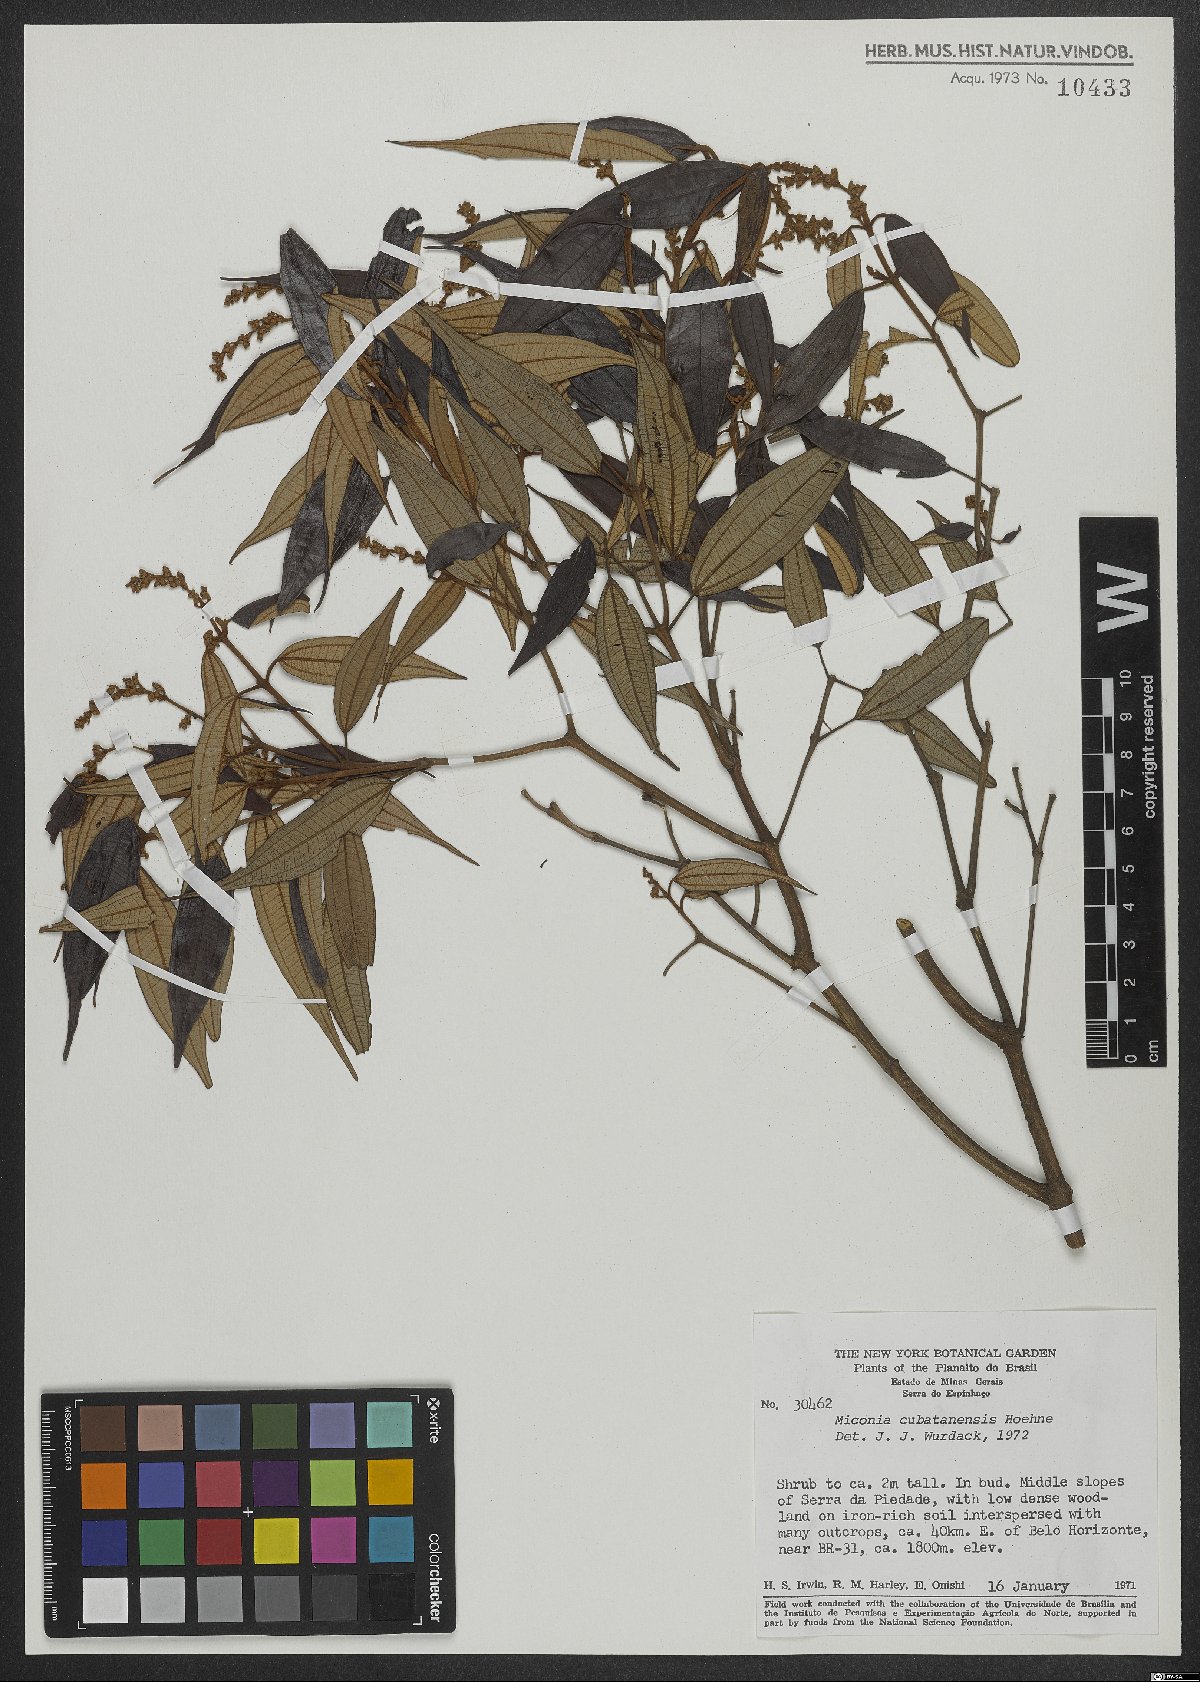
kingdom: Plantae
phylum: Tracheophyta
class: Magnoliopsida
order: Myrtales
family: Melastomataceae
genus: Miconia
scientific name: Miconia cubatanensis
